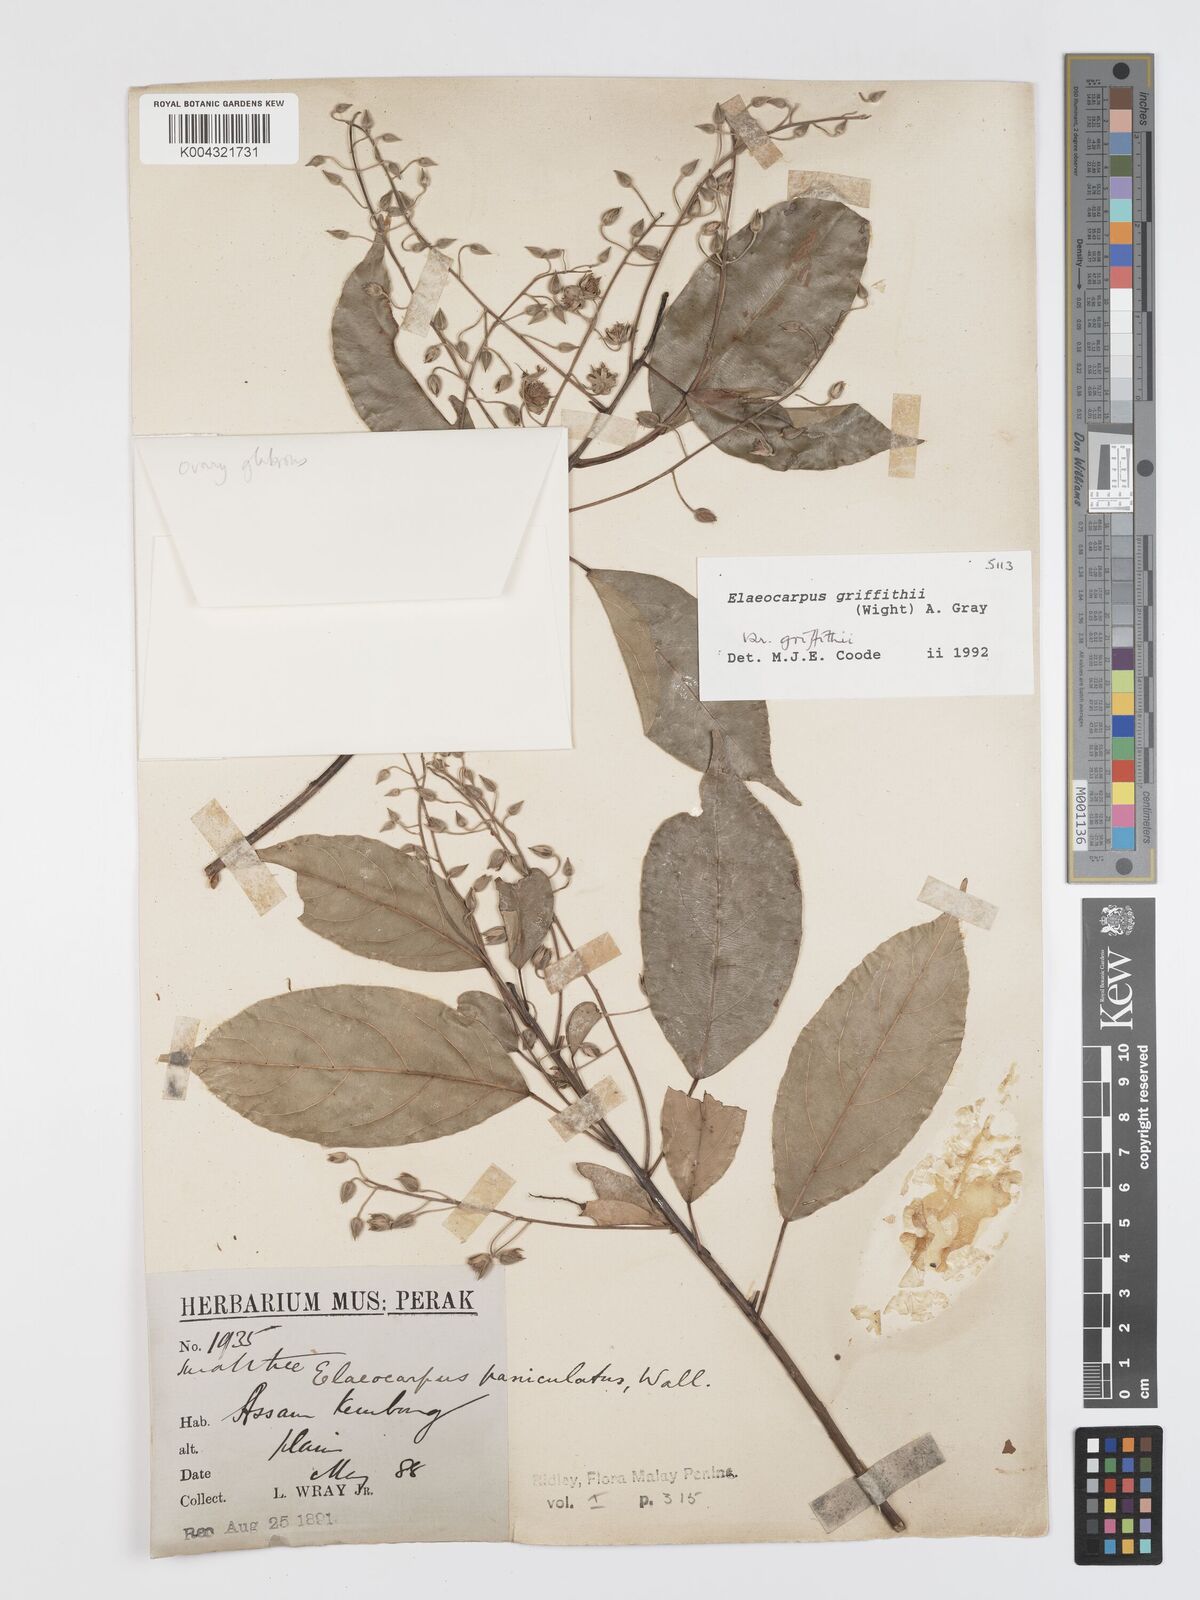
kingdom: Plantae
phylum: Tracheophyta
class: Magnoliopsida
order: Oxalidales
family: Elaeocarpaceae
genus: Elaeocarpus
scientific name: Elaeocarpus griffithii
